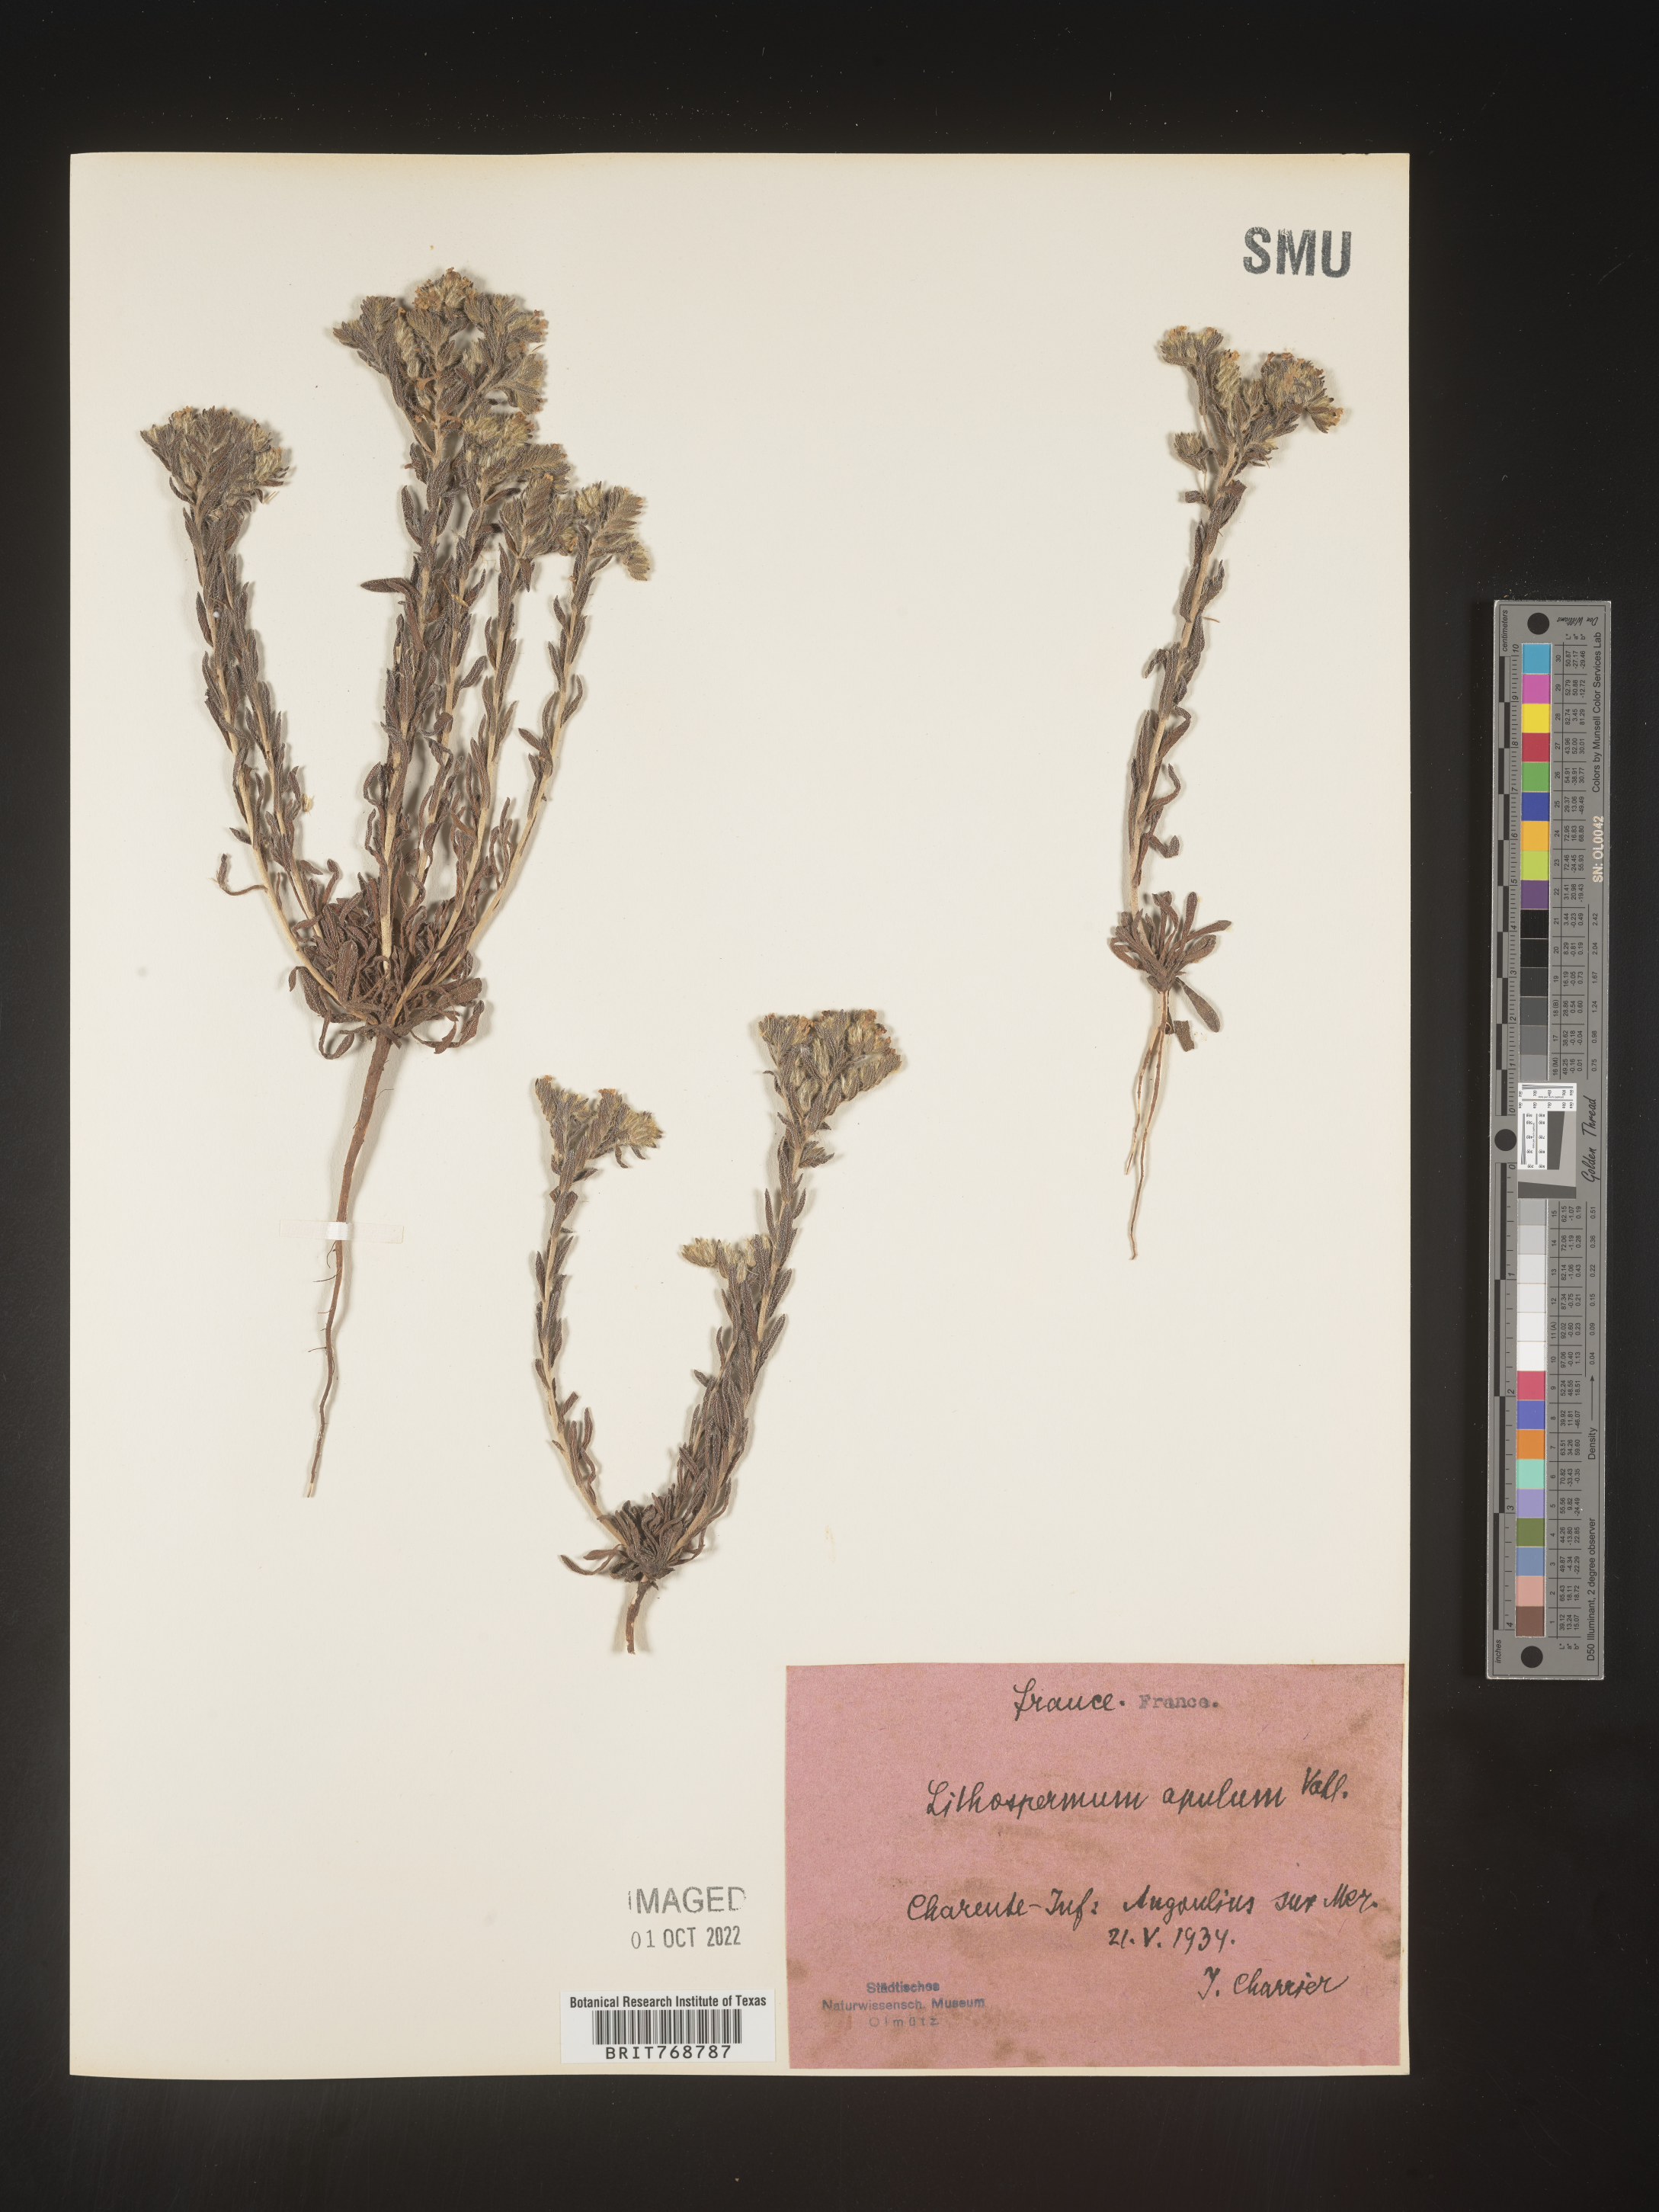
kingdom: Plantae
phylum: Tracheophyta
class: Magnoliopsida
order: Boraginales
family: Boraginaceae
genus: Lithospermum
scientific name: Lithospermum
